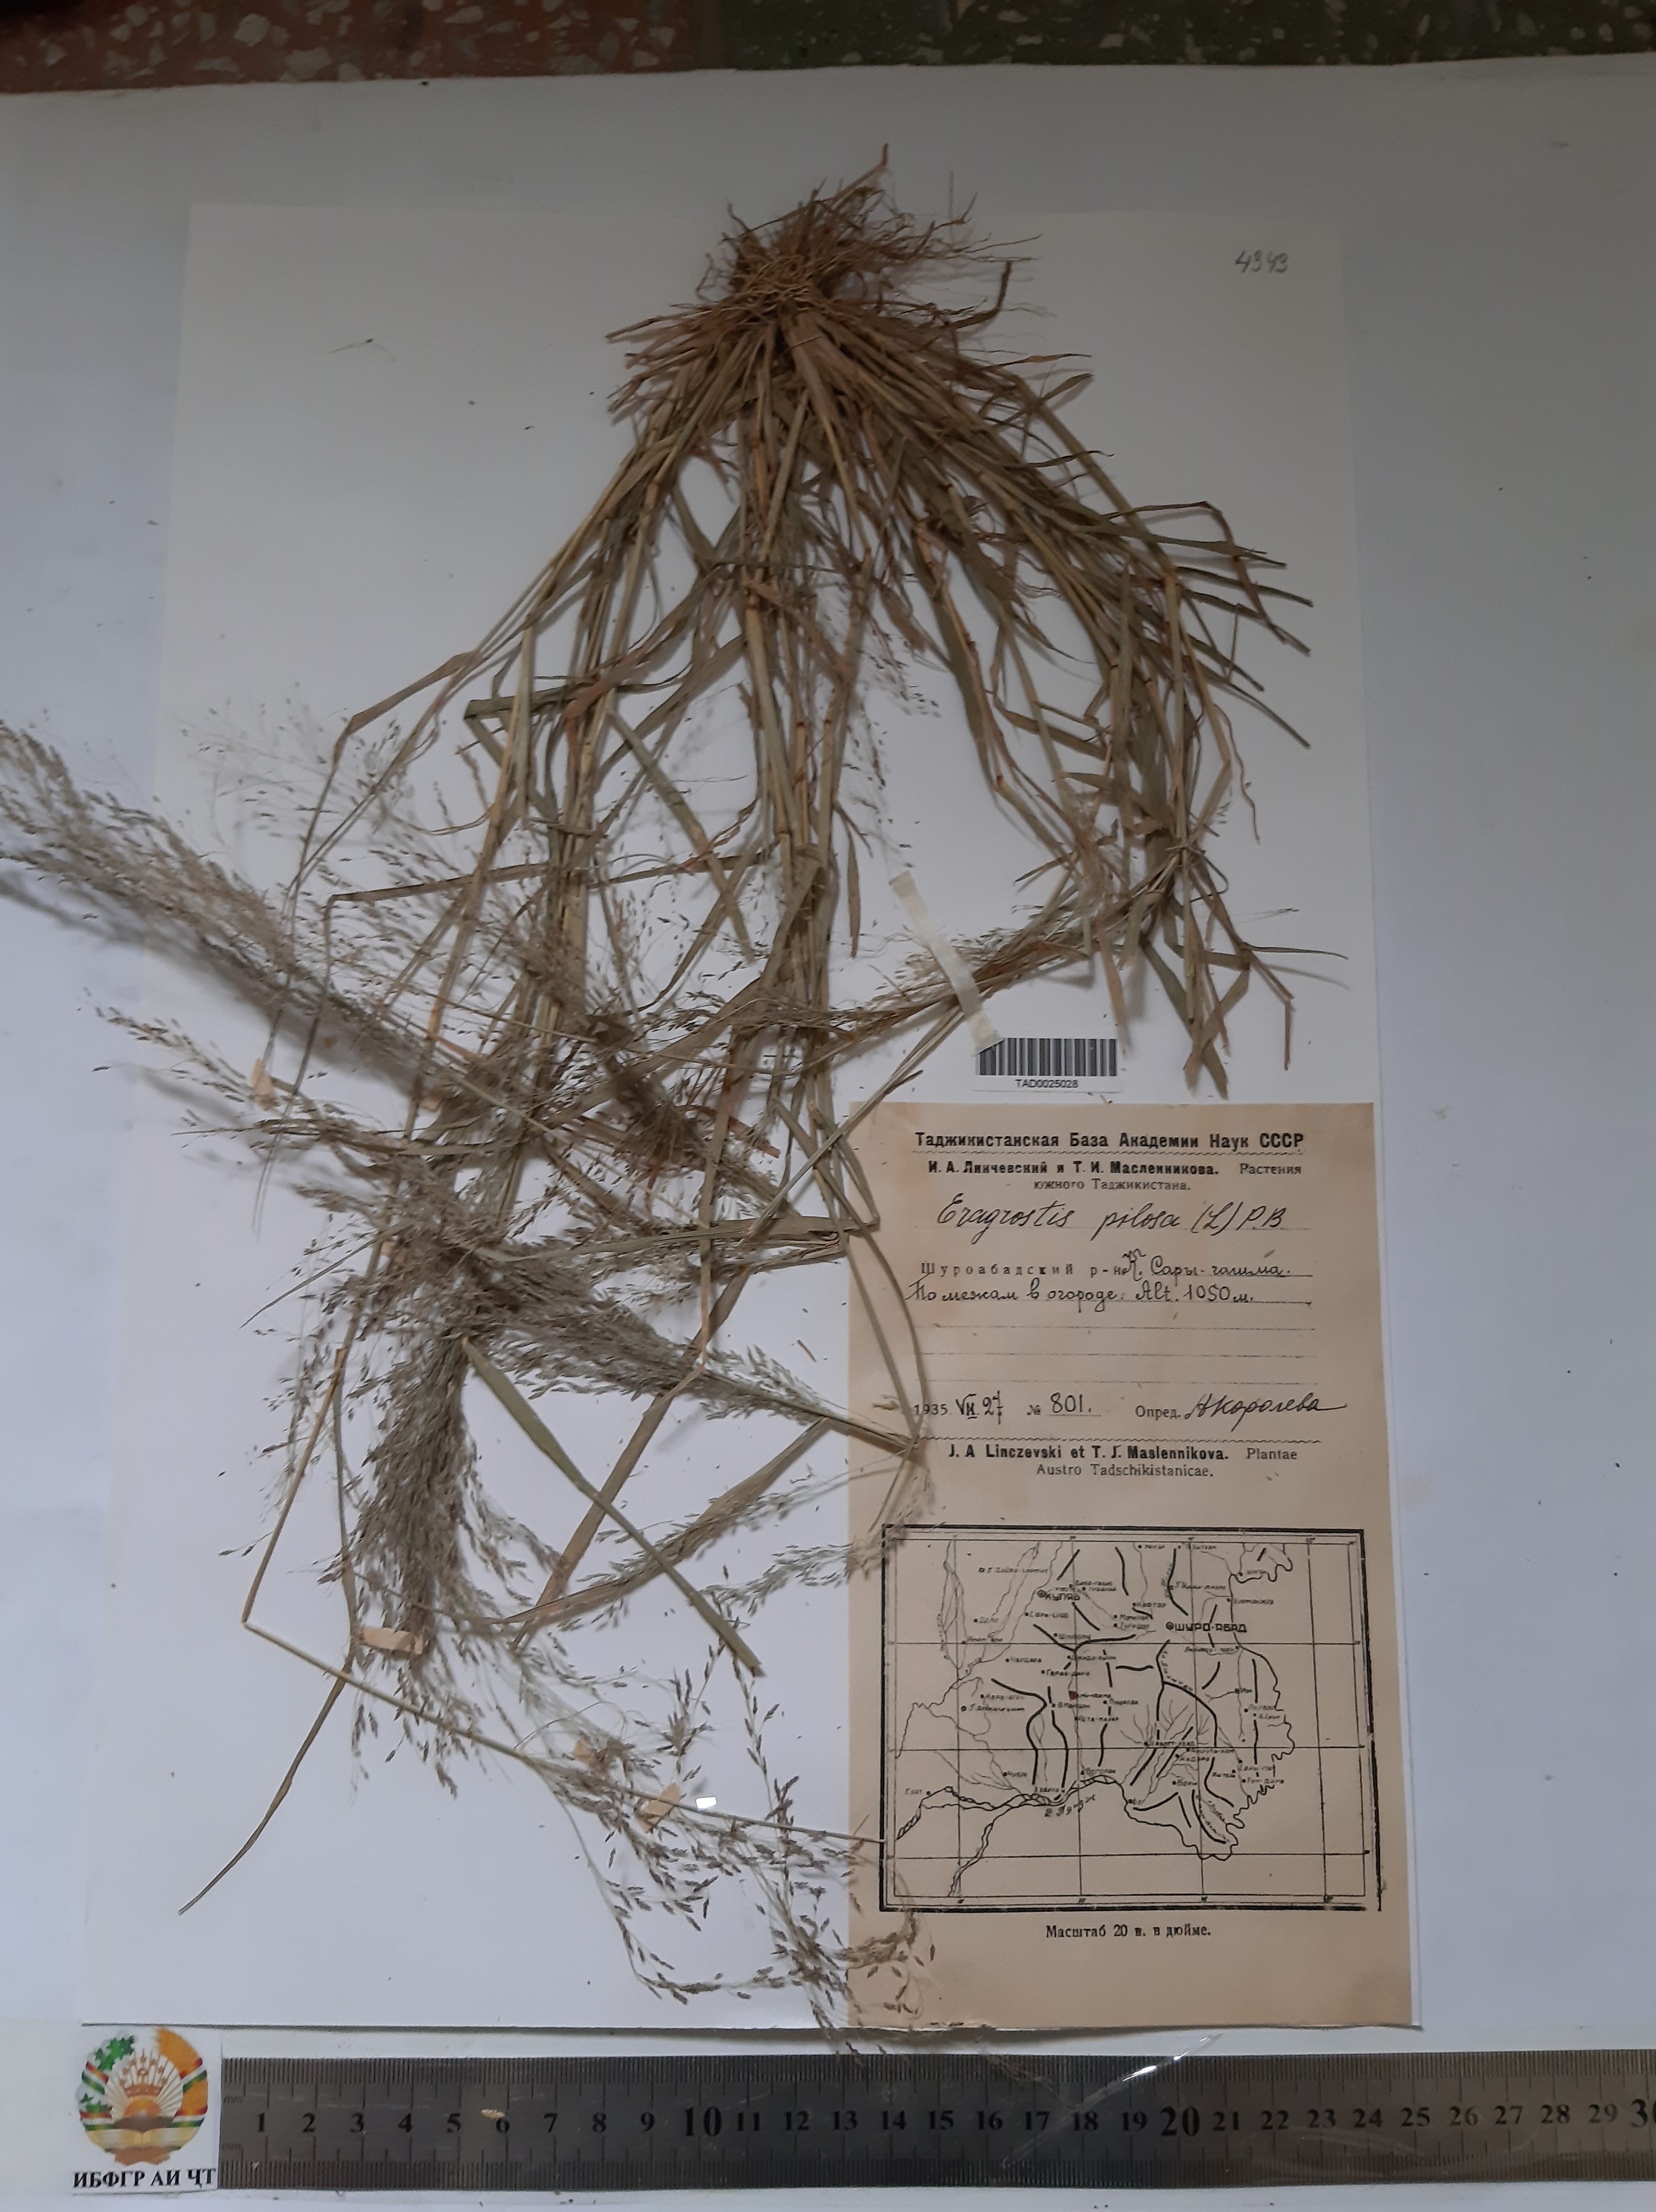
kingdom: Plantae
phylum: Tracheophyta
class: Liliopsida
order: Poales
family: Poaceae
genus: Eragrostis
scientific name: Eragrostis pilosa
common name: Indian lovegrass
